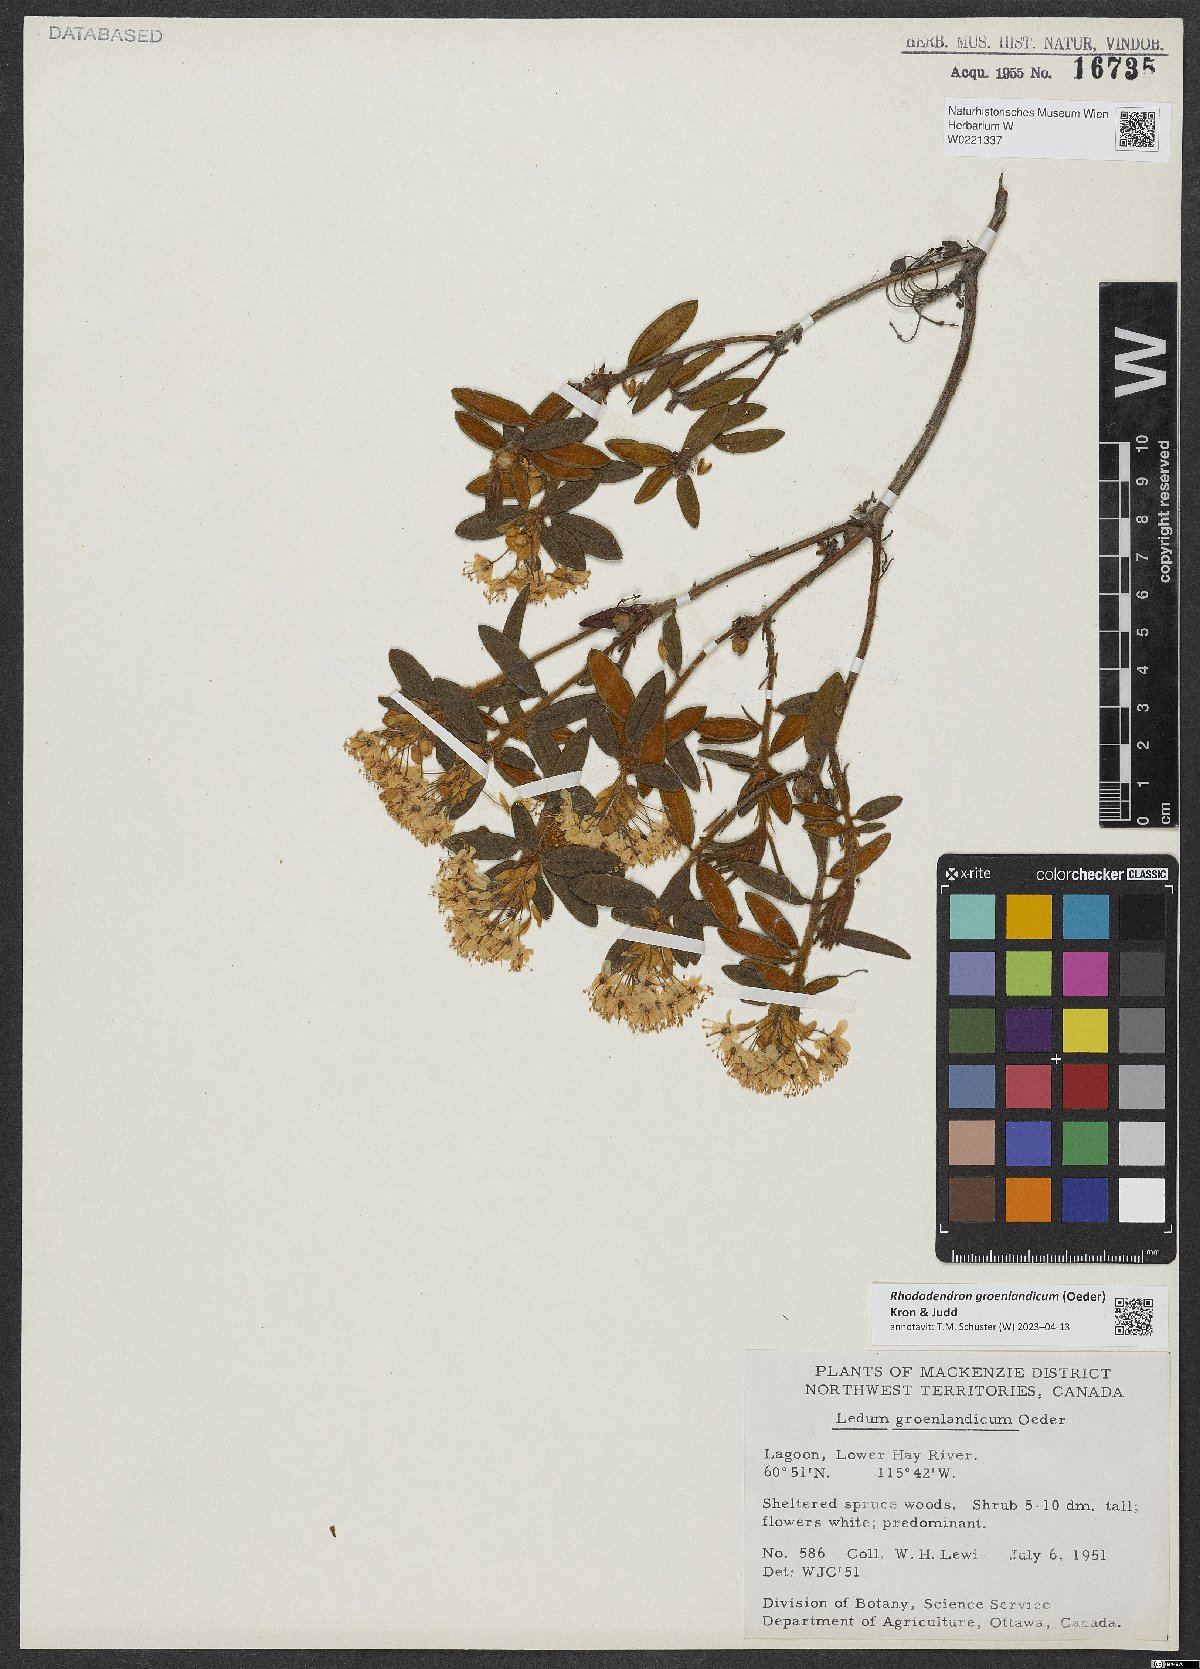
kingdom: Plantae
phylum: Tracheophyta
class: Magnoliopsida
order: Ericales
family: Ericaceae
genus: Rhododendron
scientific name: Rhododendron groenlandicum
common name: Bog labrador tea
